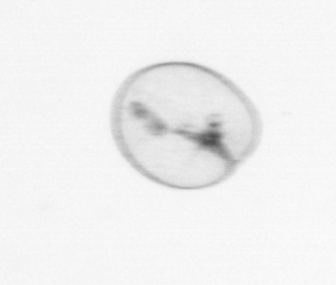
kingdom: Chromista
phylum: Myzozoa
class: Dinophyceae
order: Noctilucales
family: Noctilucaceae
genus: Noctiluca
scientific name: Noctiluca scintillans
